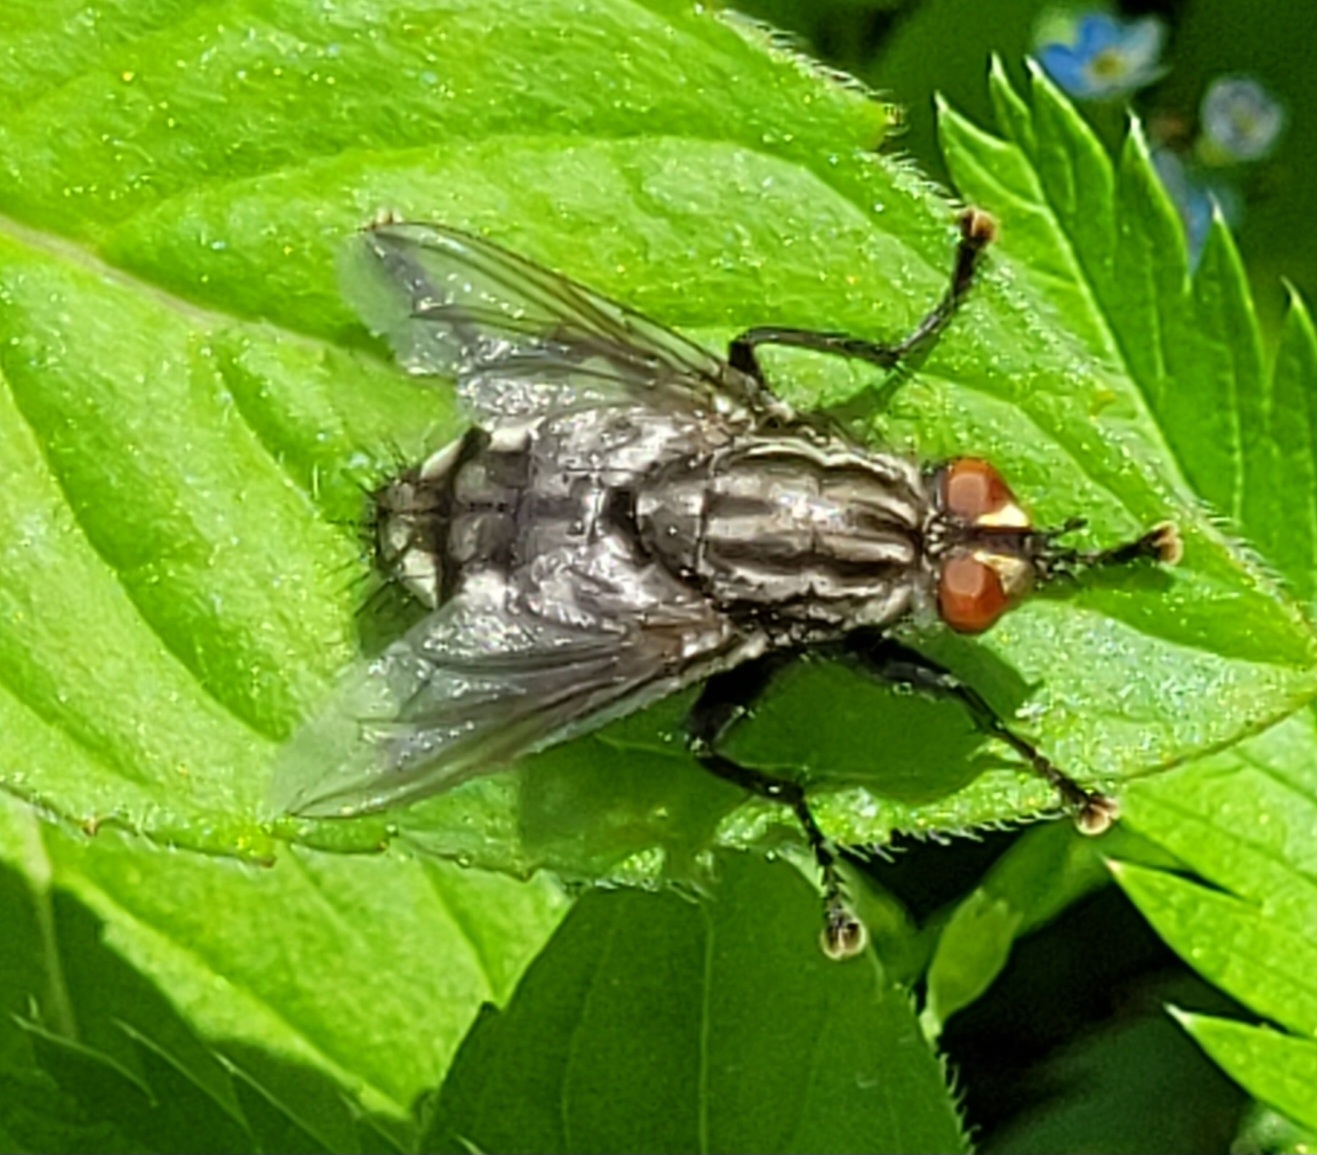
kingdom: Animalia
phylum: Arthropoda
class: Insecta
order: Diptera
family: Sarcophagidae
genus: Sarcophaga
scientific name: Sarcophaga
